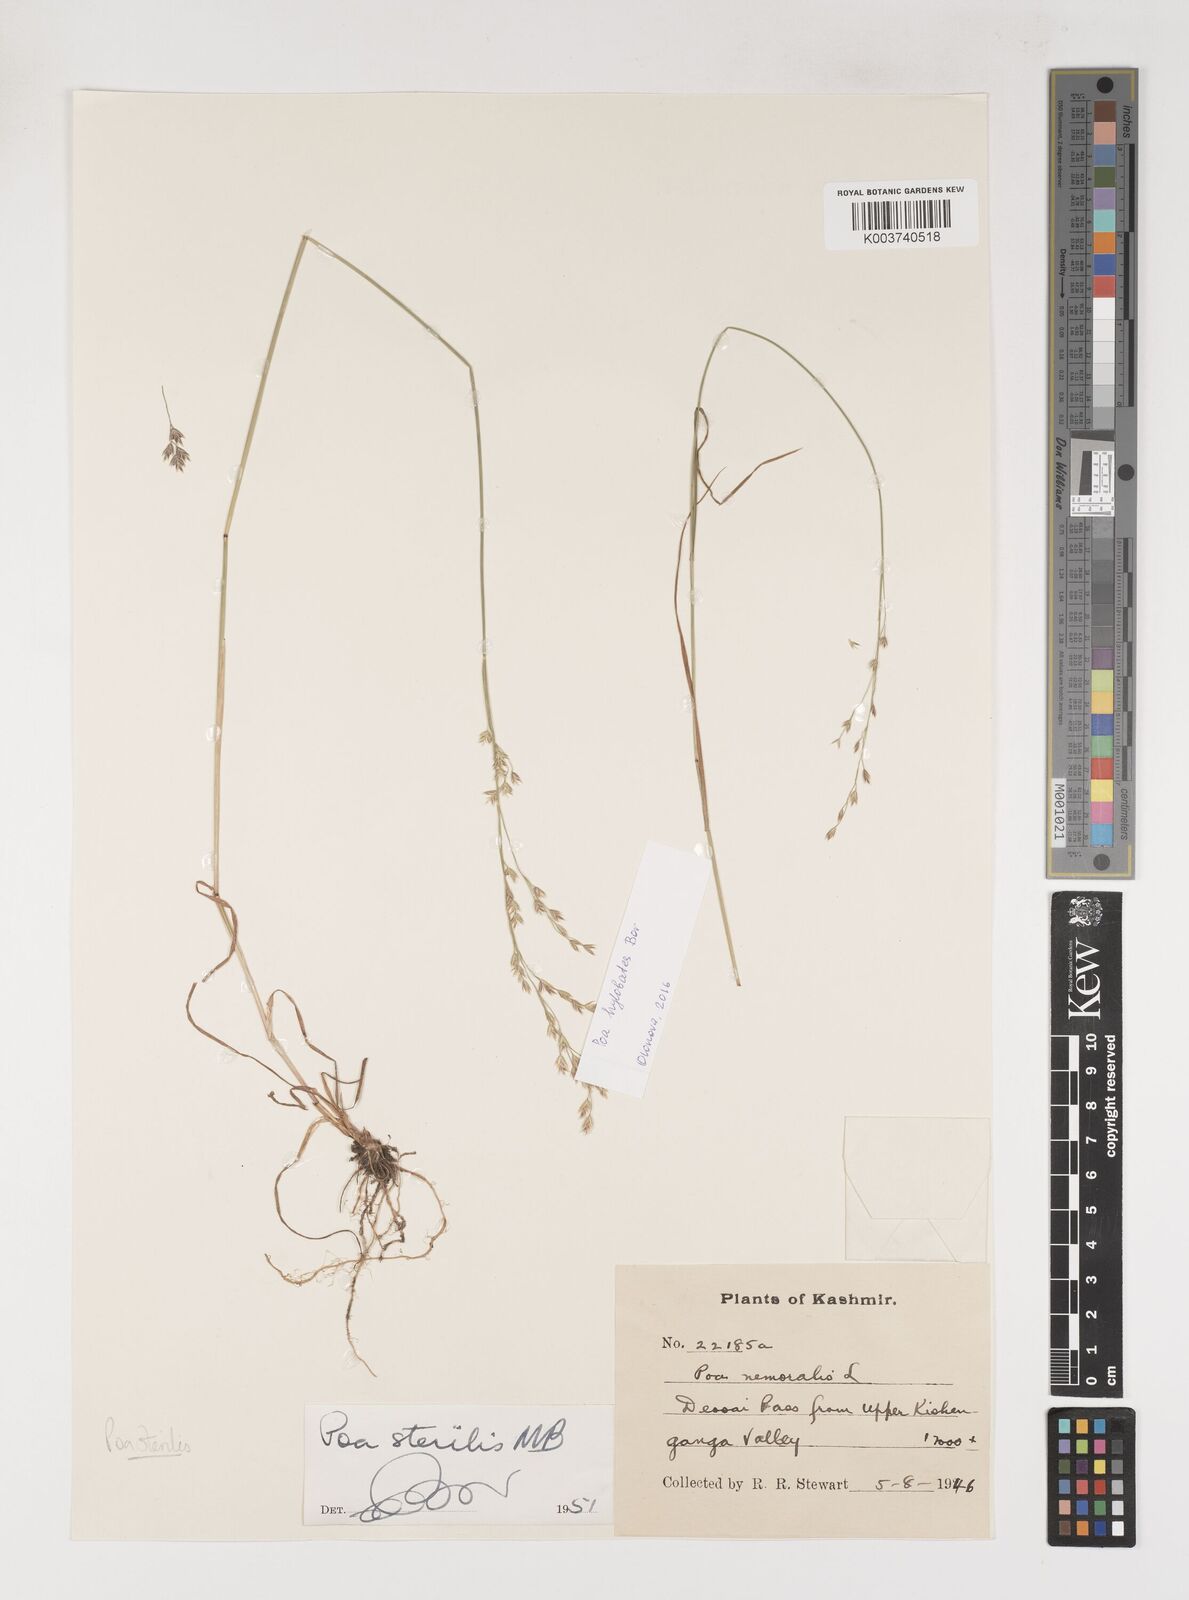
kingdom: Plantae
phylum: Tracheophyta
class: Liliopsida
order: Poales
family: Poaceae
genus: Poa
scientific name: Poa sterilis
